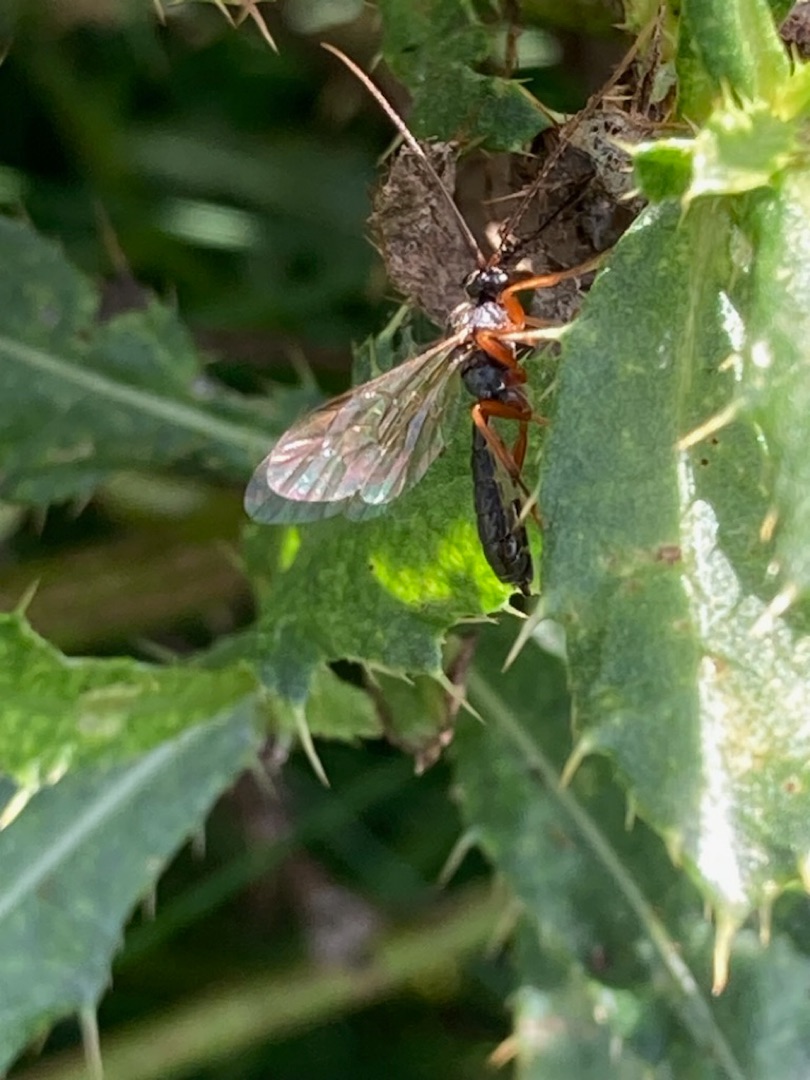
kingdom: Animalia
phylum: Arthropoda
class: Insecta
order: Hymenoptera
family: Ichneumonidae
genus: Dyspetes
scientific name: Dyspetes luteomarginatus
